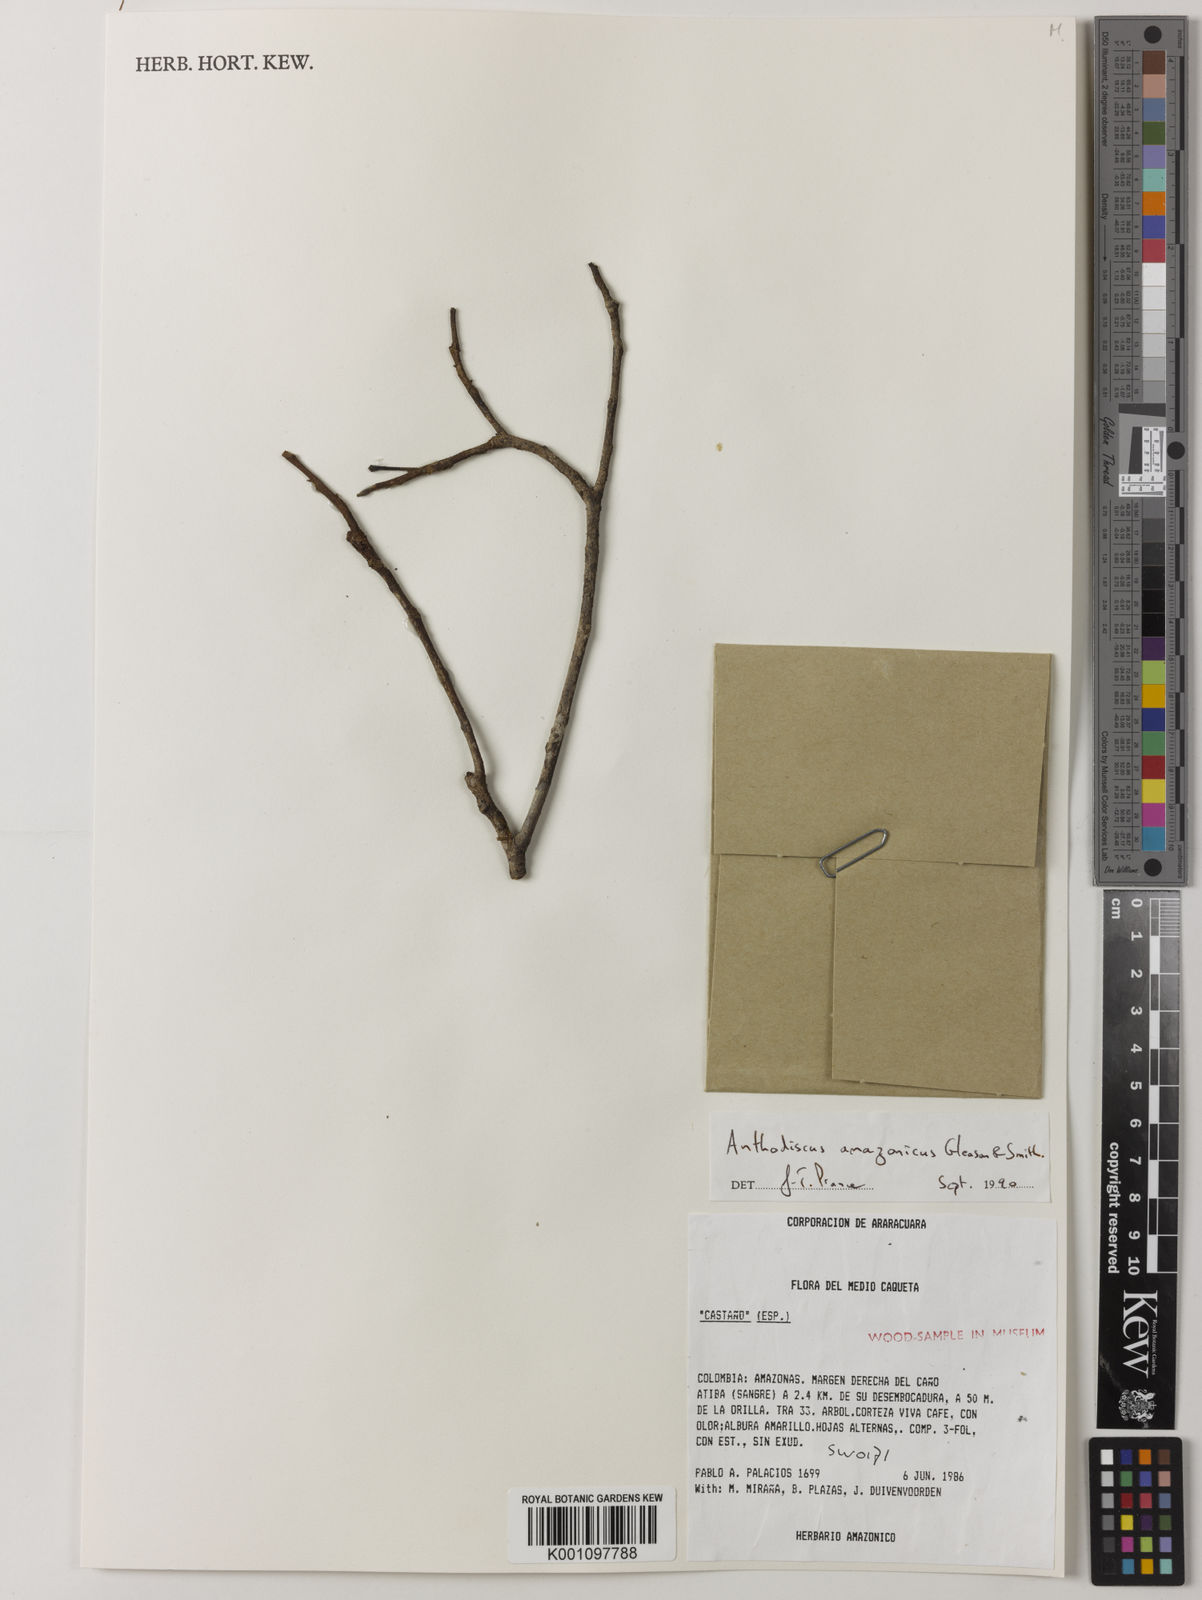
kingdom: Plantae
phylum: Tracheophyta
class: Magnoliopsida
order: Malpighiales
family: Caryocaraceae
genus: Anthodiscus
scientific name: Anthodiscus amazonicus
